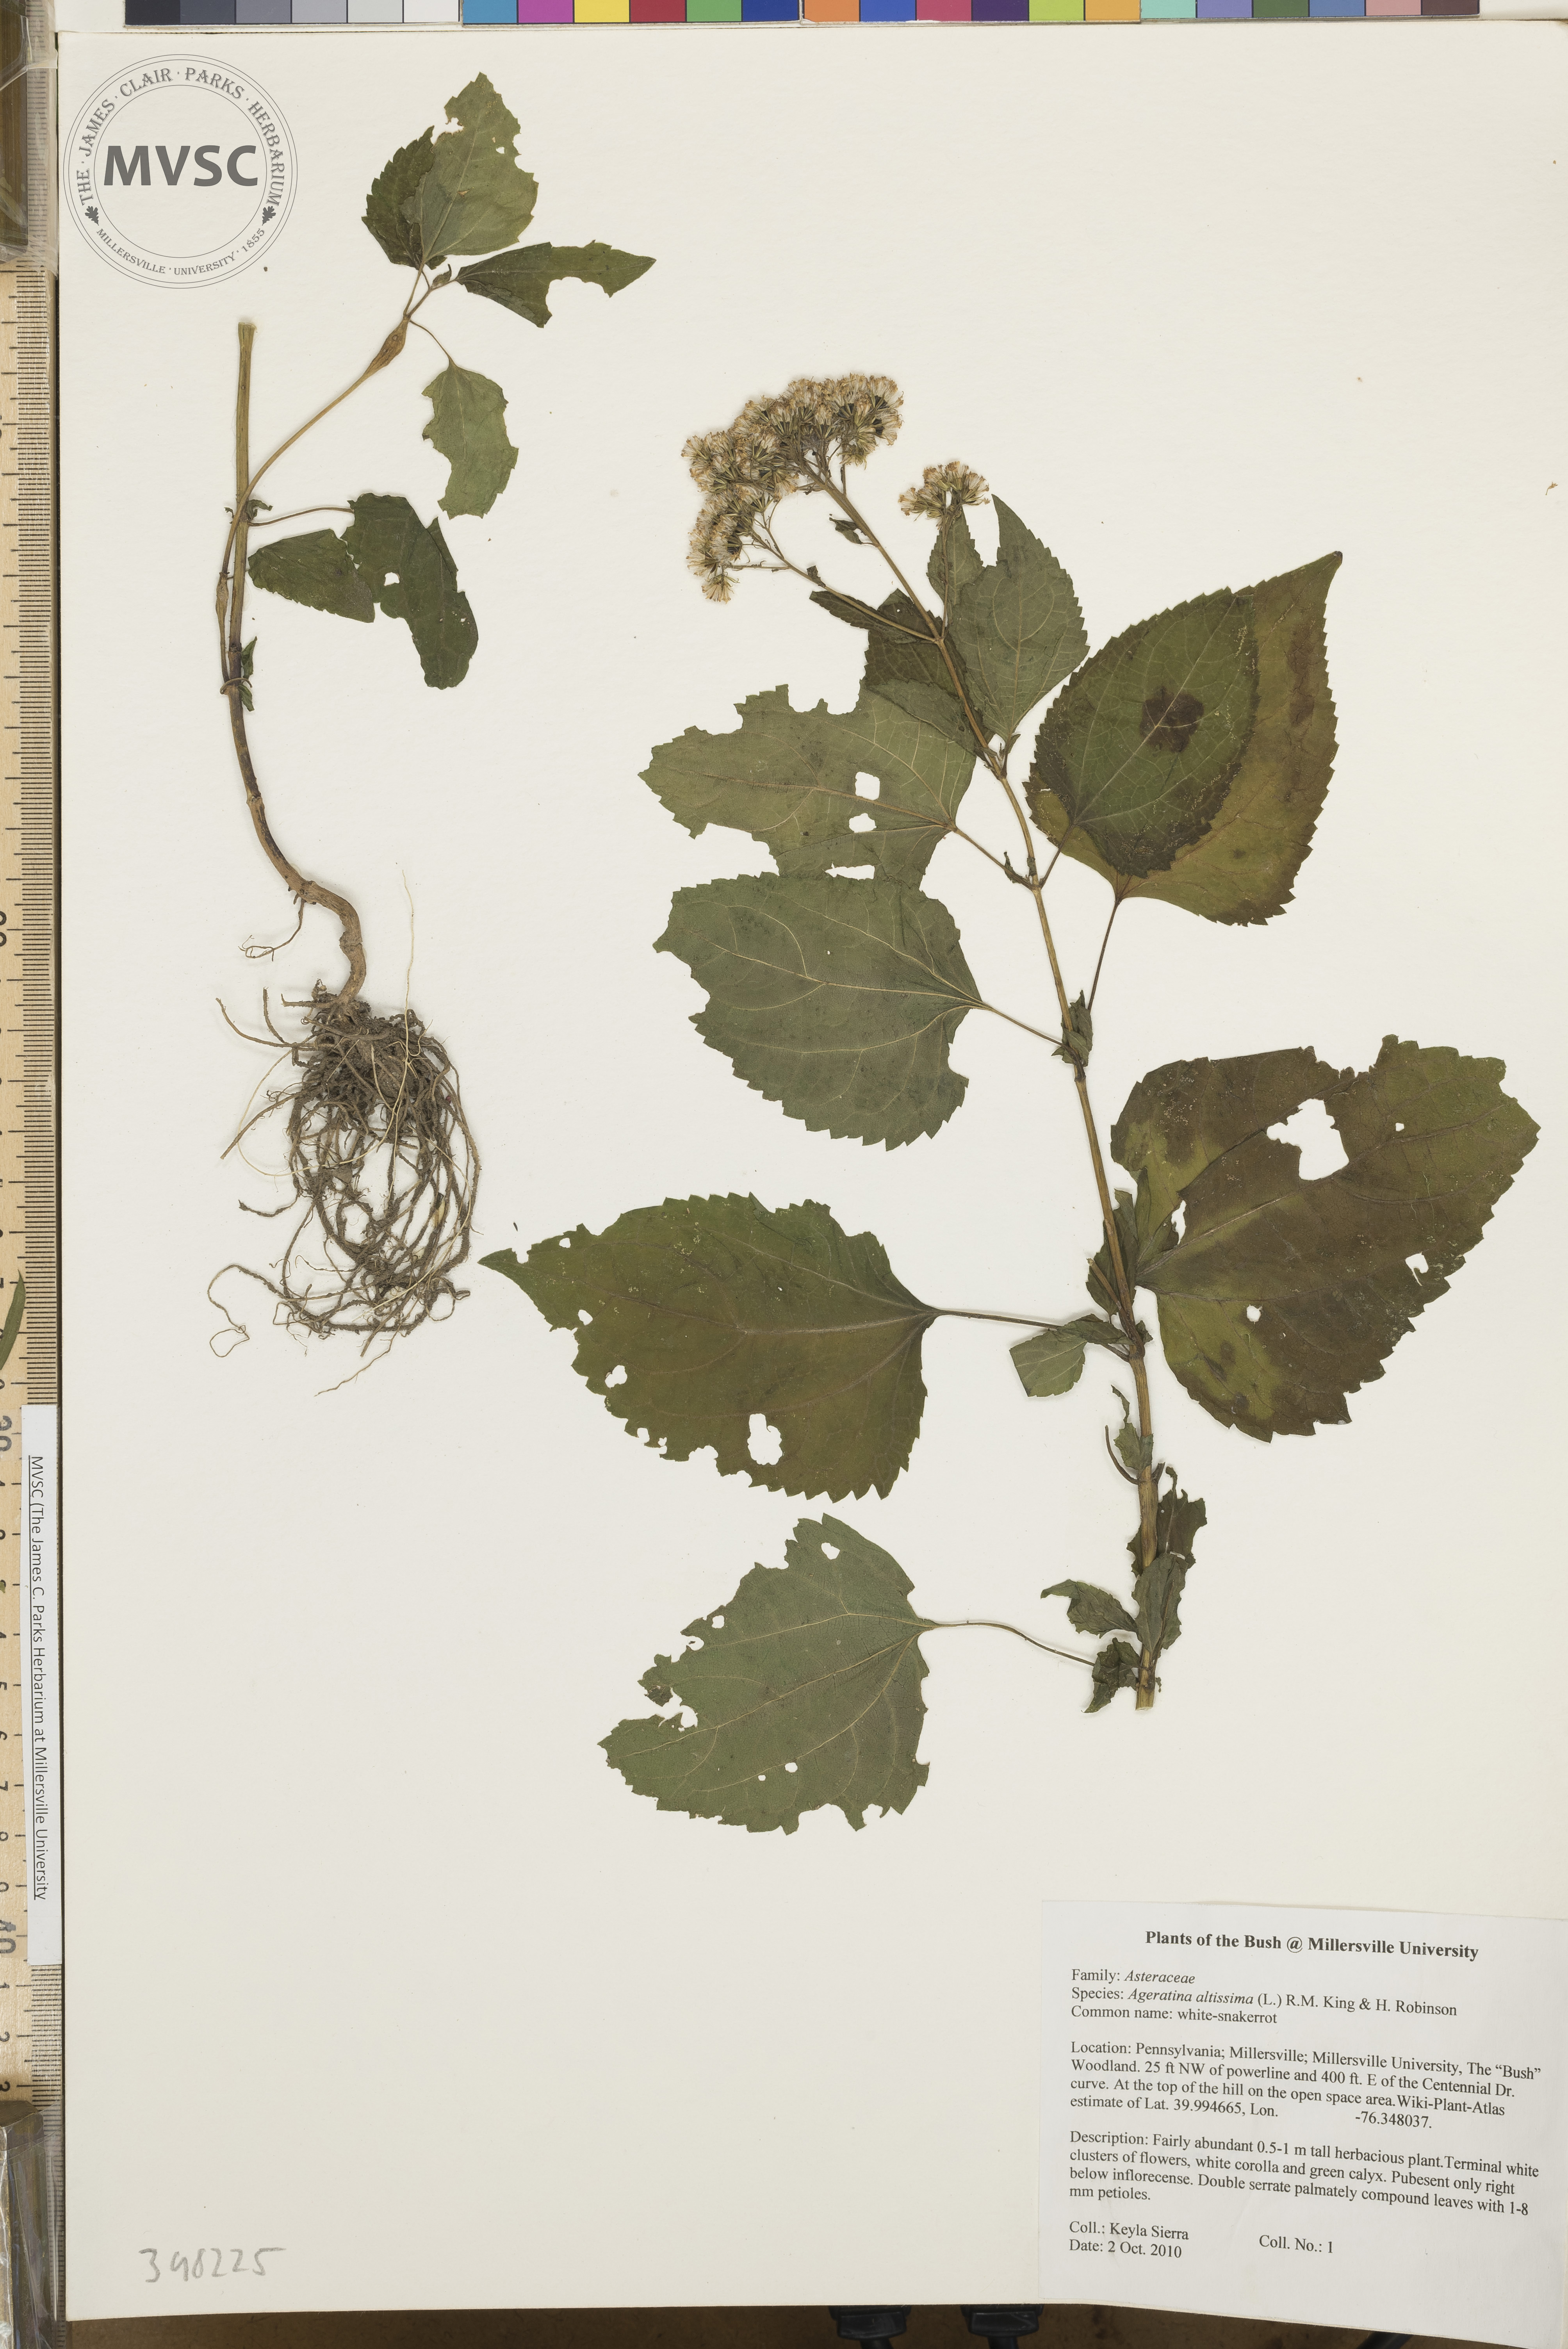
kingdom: Plantae
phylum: Tracheophyta
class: Magnoliopsida
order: Asterales
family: Asteraceae
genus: Ageratina
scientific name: Ageratina altissima
